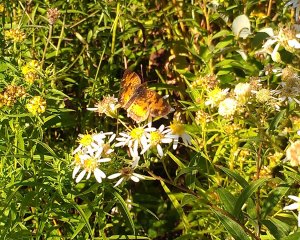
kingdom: Animalia
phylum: Arthropoda
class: Insecta
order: Lepidoptera
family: Nymphalidae
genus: Phyciodes
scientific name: Phyciodes tharos
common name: Northern Crescent
